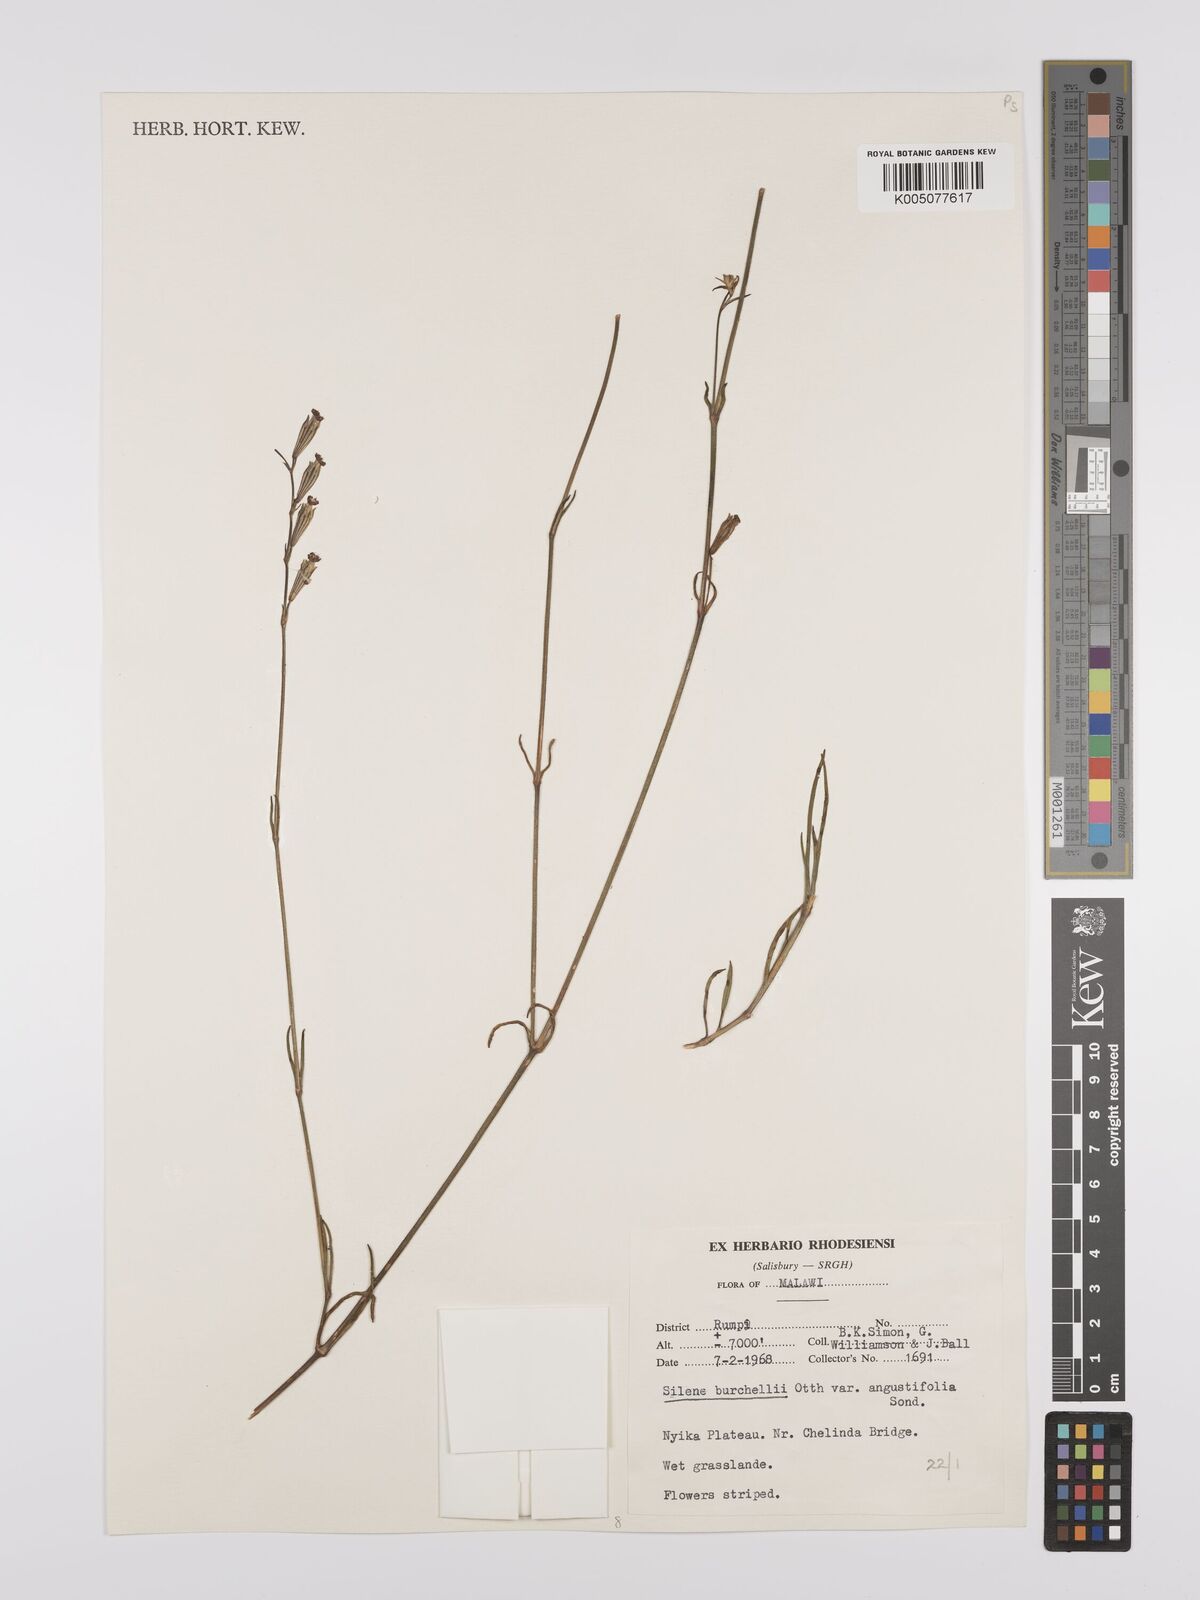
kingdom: Plantae
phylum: Tracheophyta
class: Magnoliopsida
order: Caryophyllales
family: Caryophyllaceae
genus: Silene
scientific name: Silene burchellii
